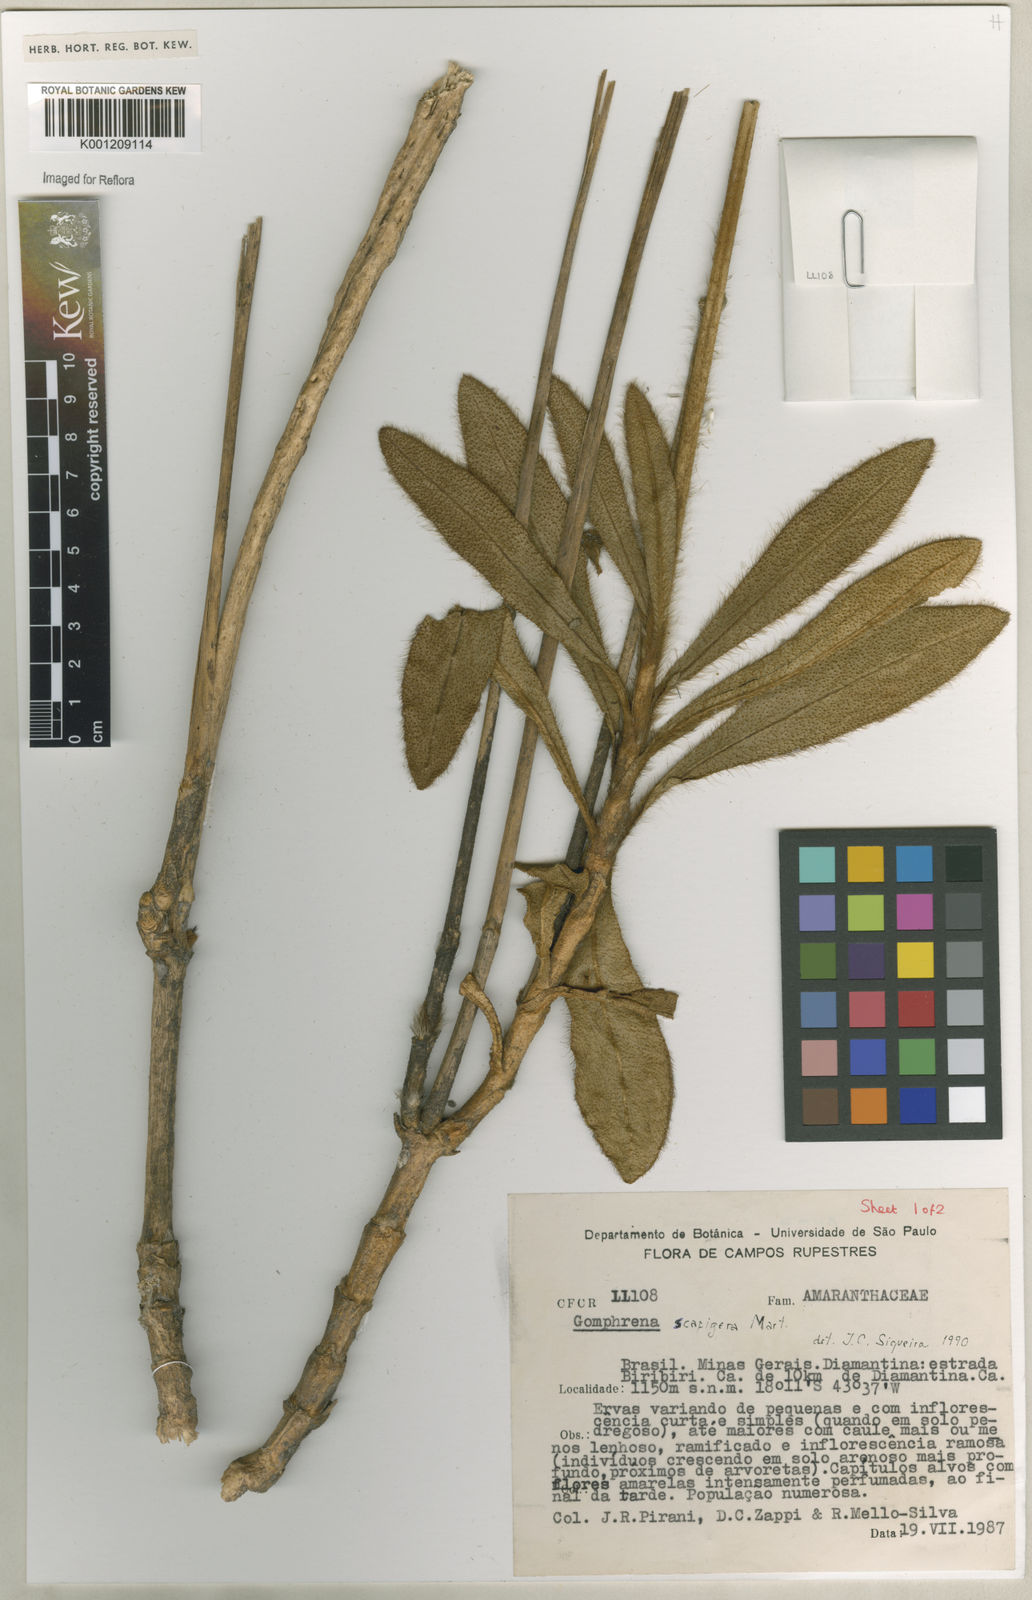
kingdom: Plantae
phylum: Tracheophyta
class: Magnoliopsida
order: Caryophyllales
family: Amaranthaceae
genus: Gomphrena
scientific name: Gomphrena scapigera
